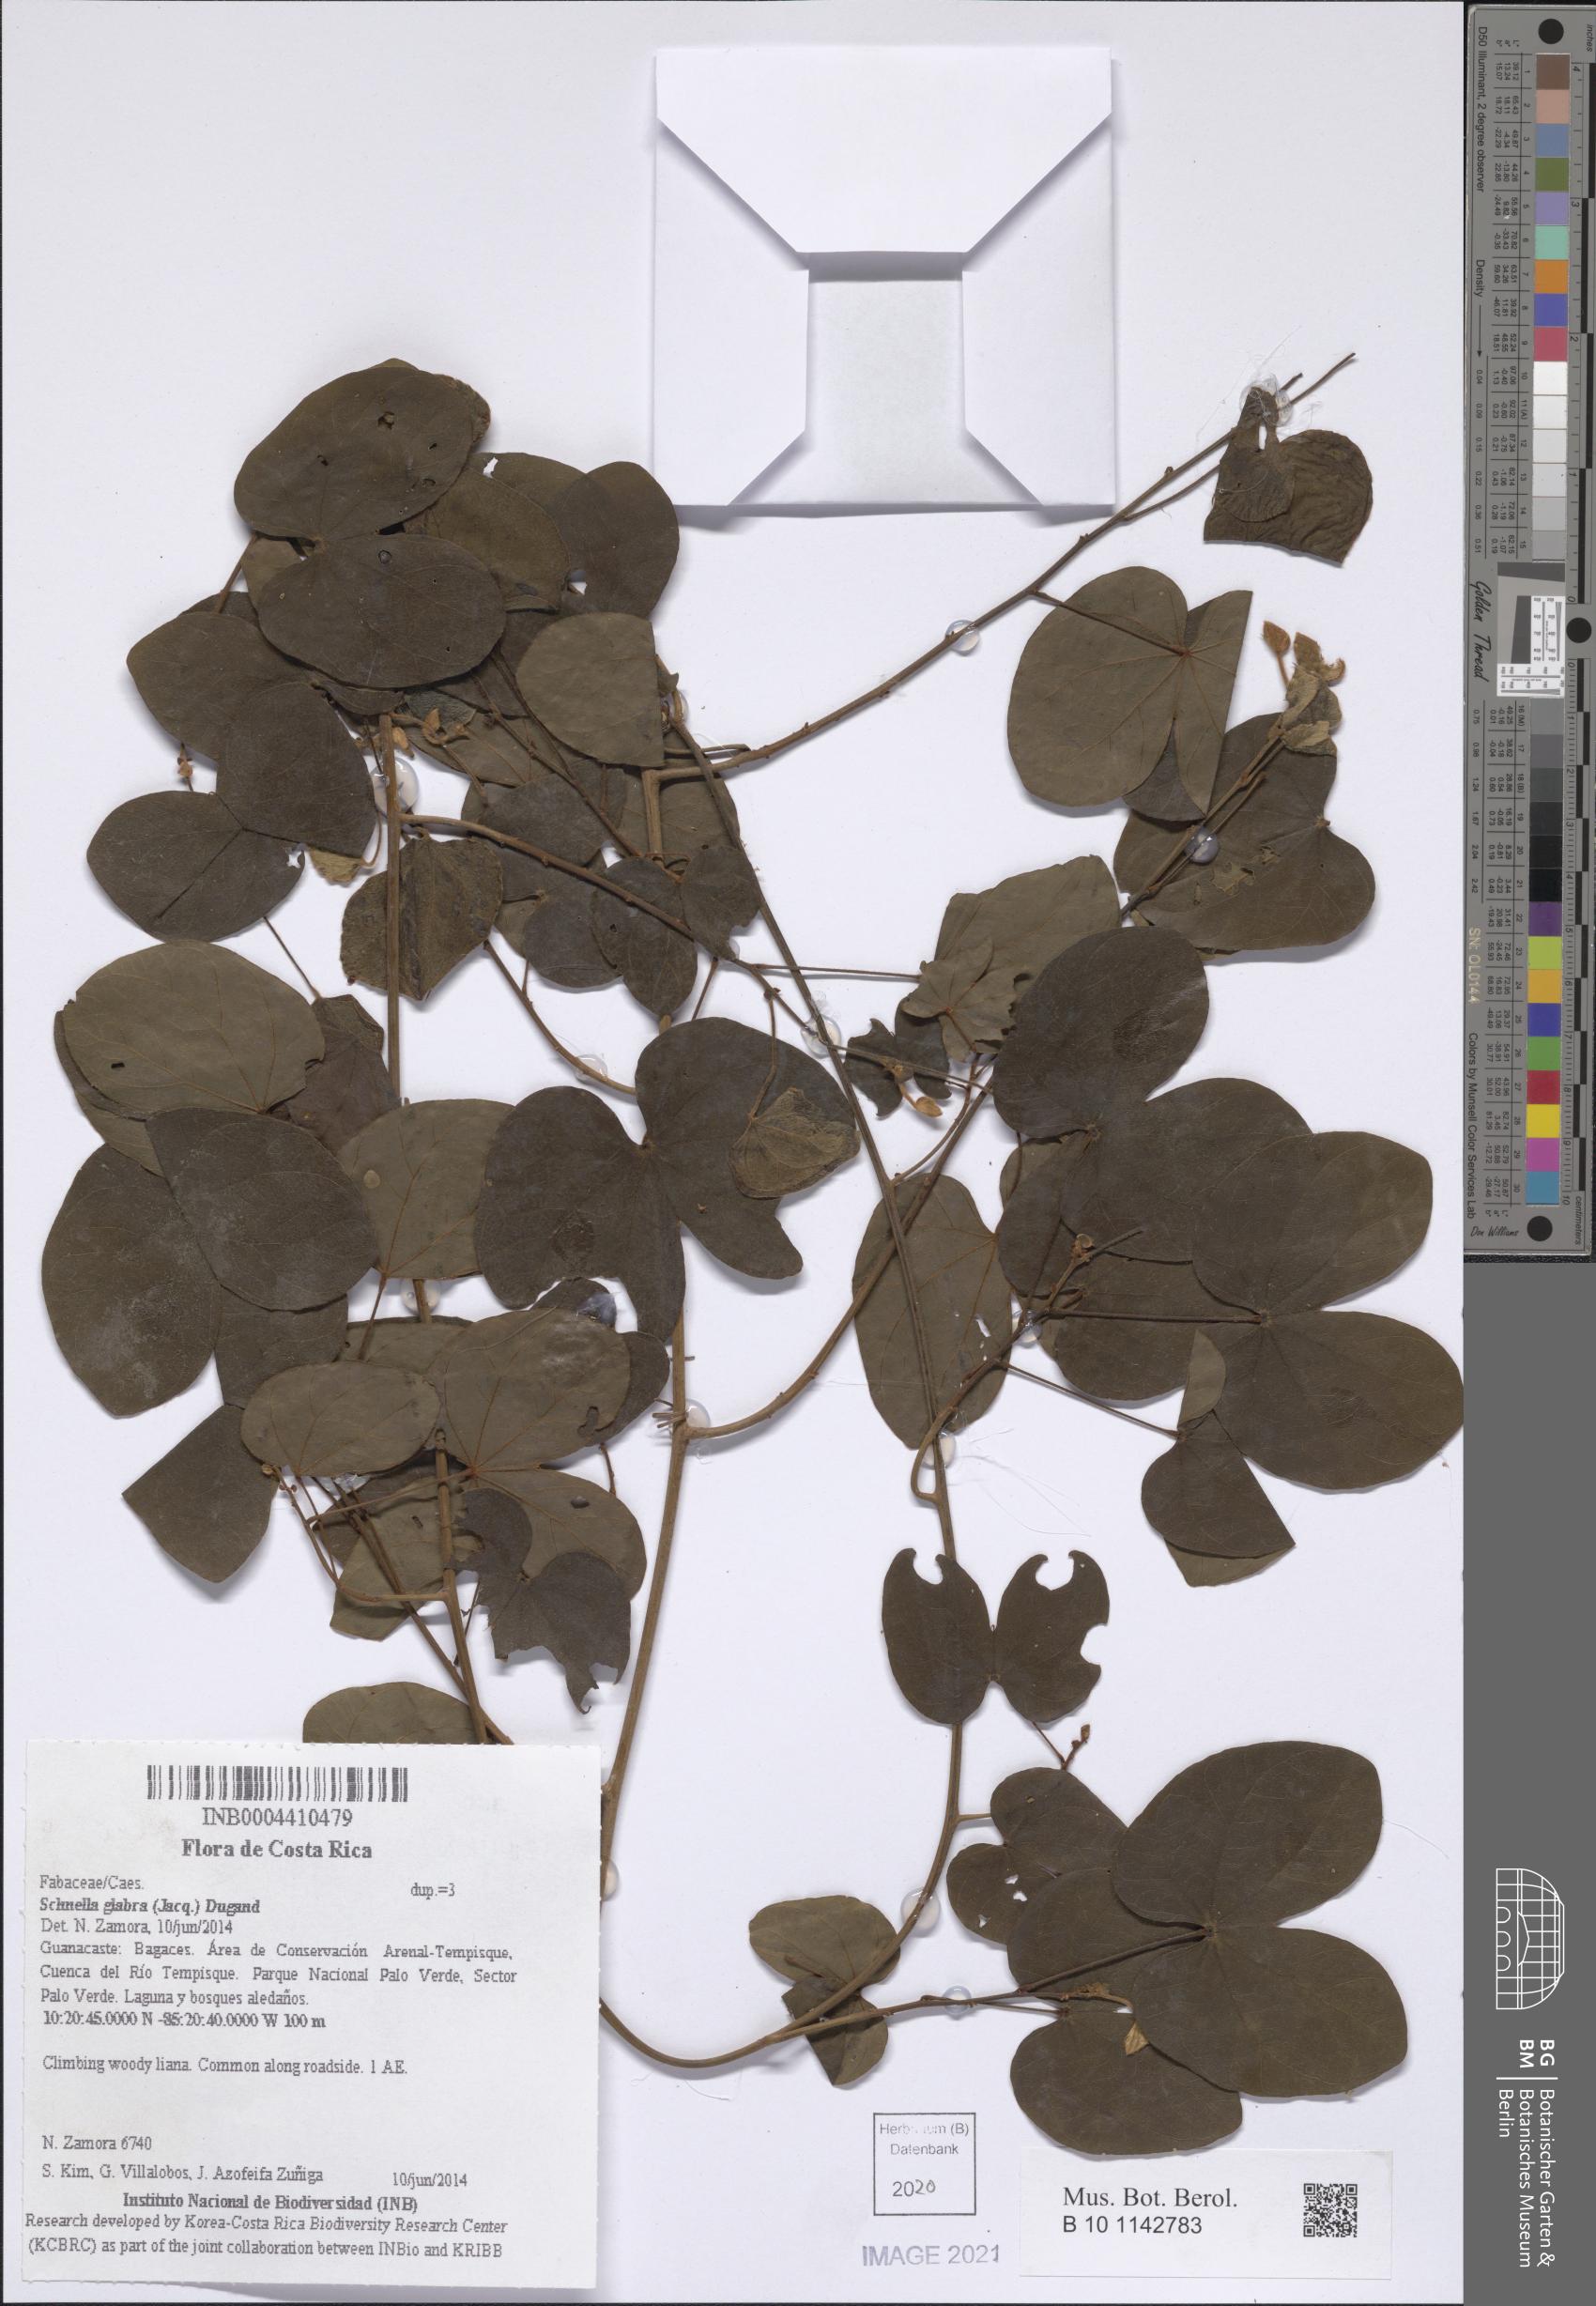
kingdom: Plantae
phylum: Tracheophyta
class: Magnoliopsida
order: Fabales
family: Fabaceae
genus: Schnella
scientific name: Schnella glabra
